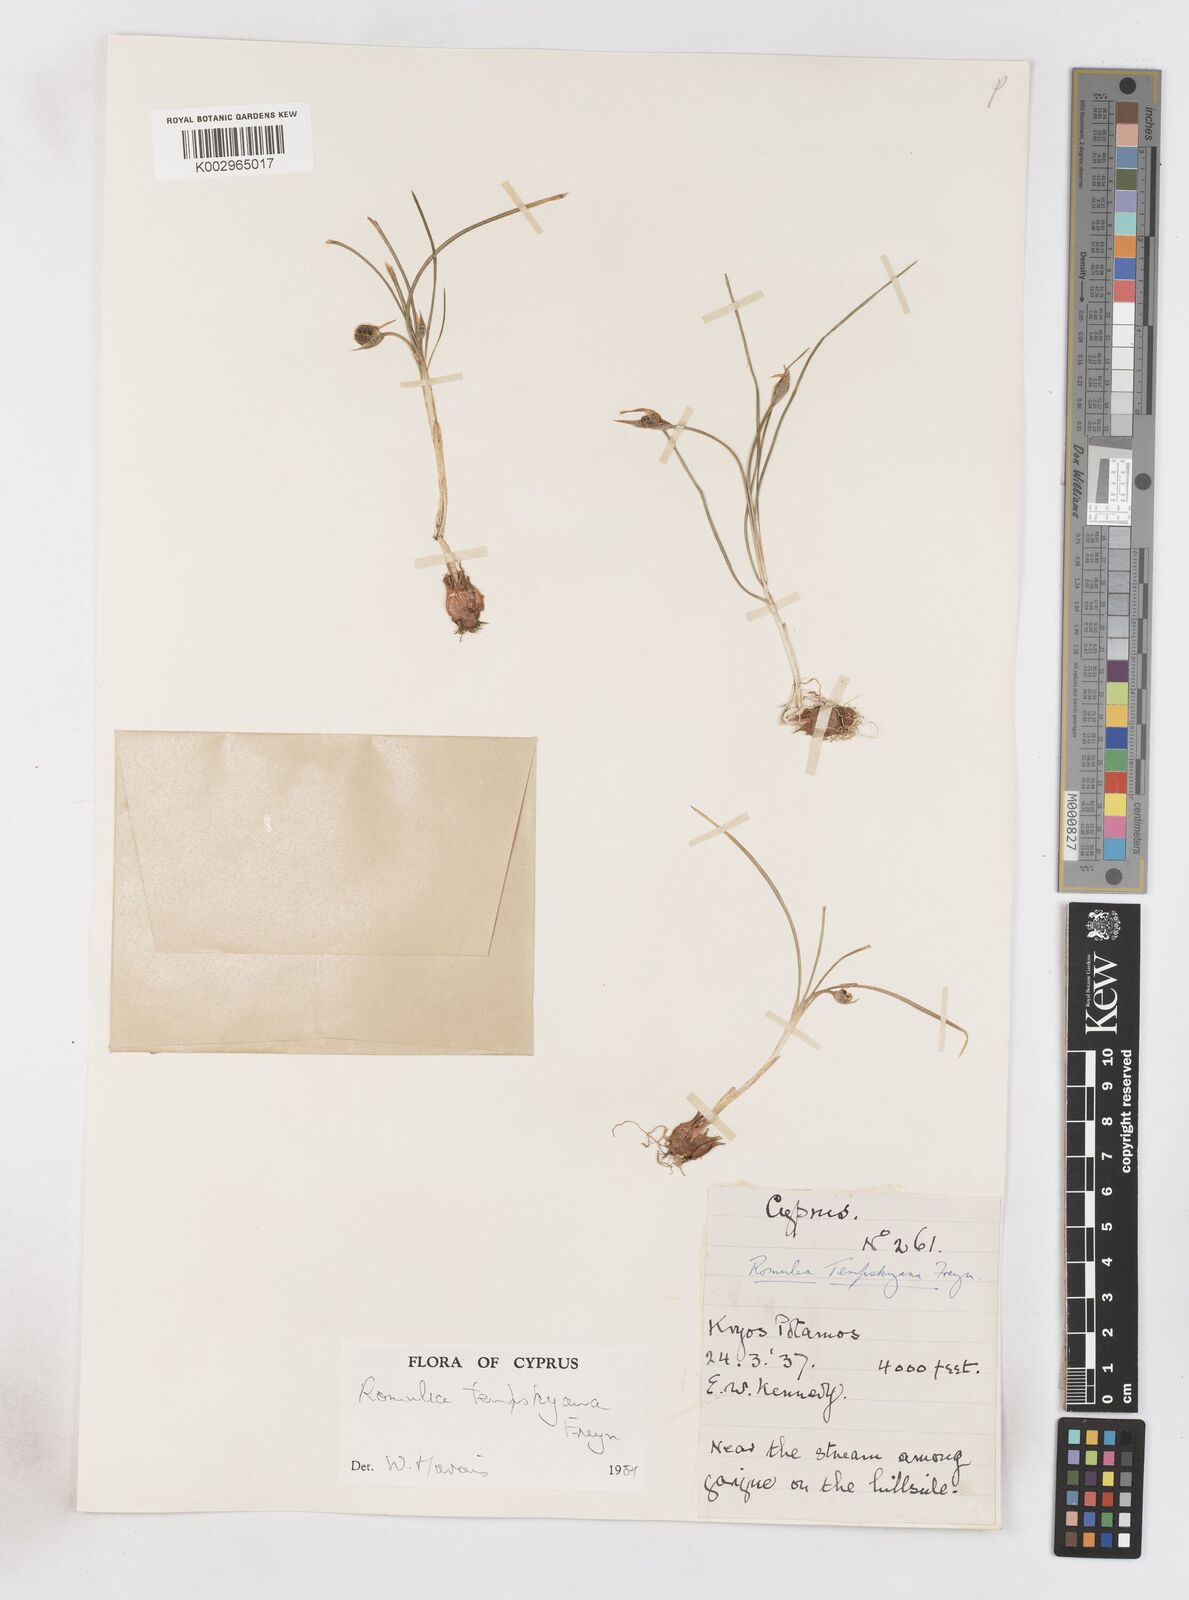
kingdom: Plantae
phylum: Tracheophyta
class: Liliopsida
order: Asparagales
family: Iridaceae
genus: Romulea
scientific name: Romulea tempskyana
